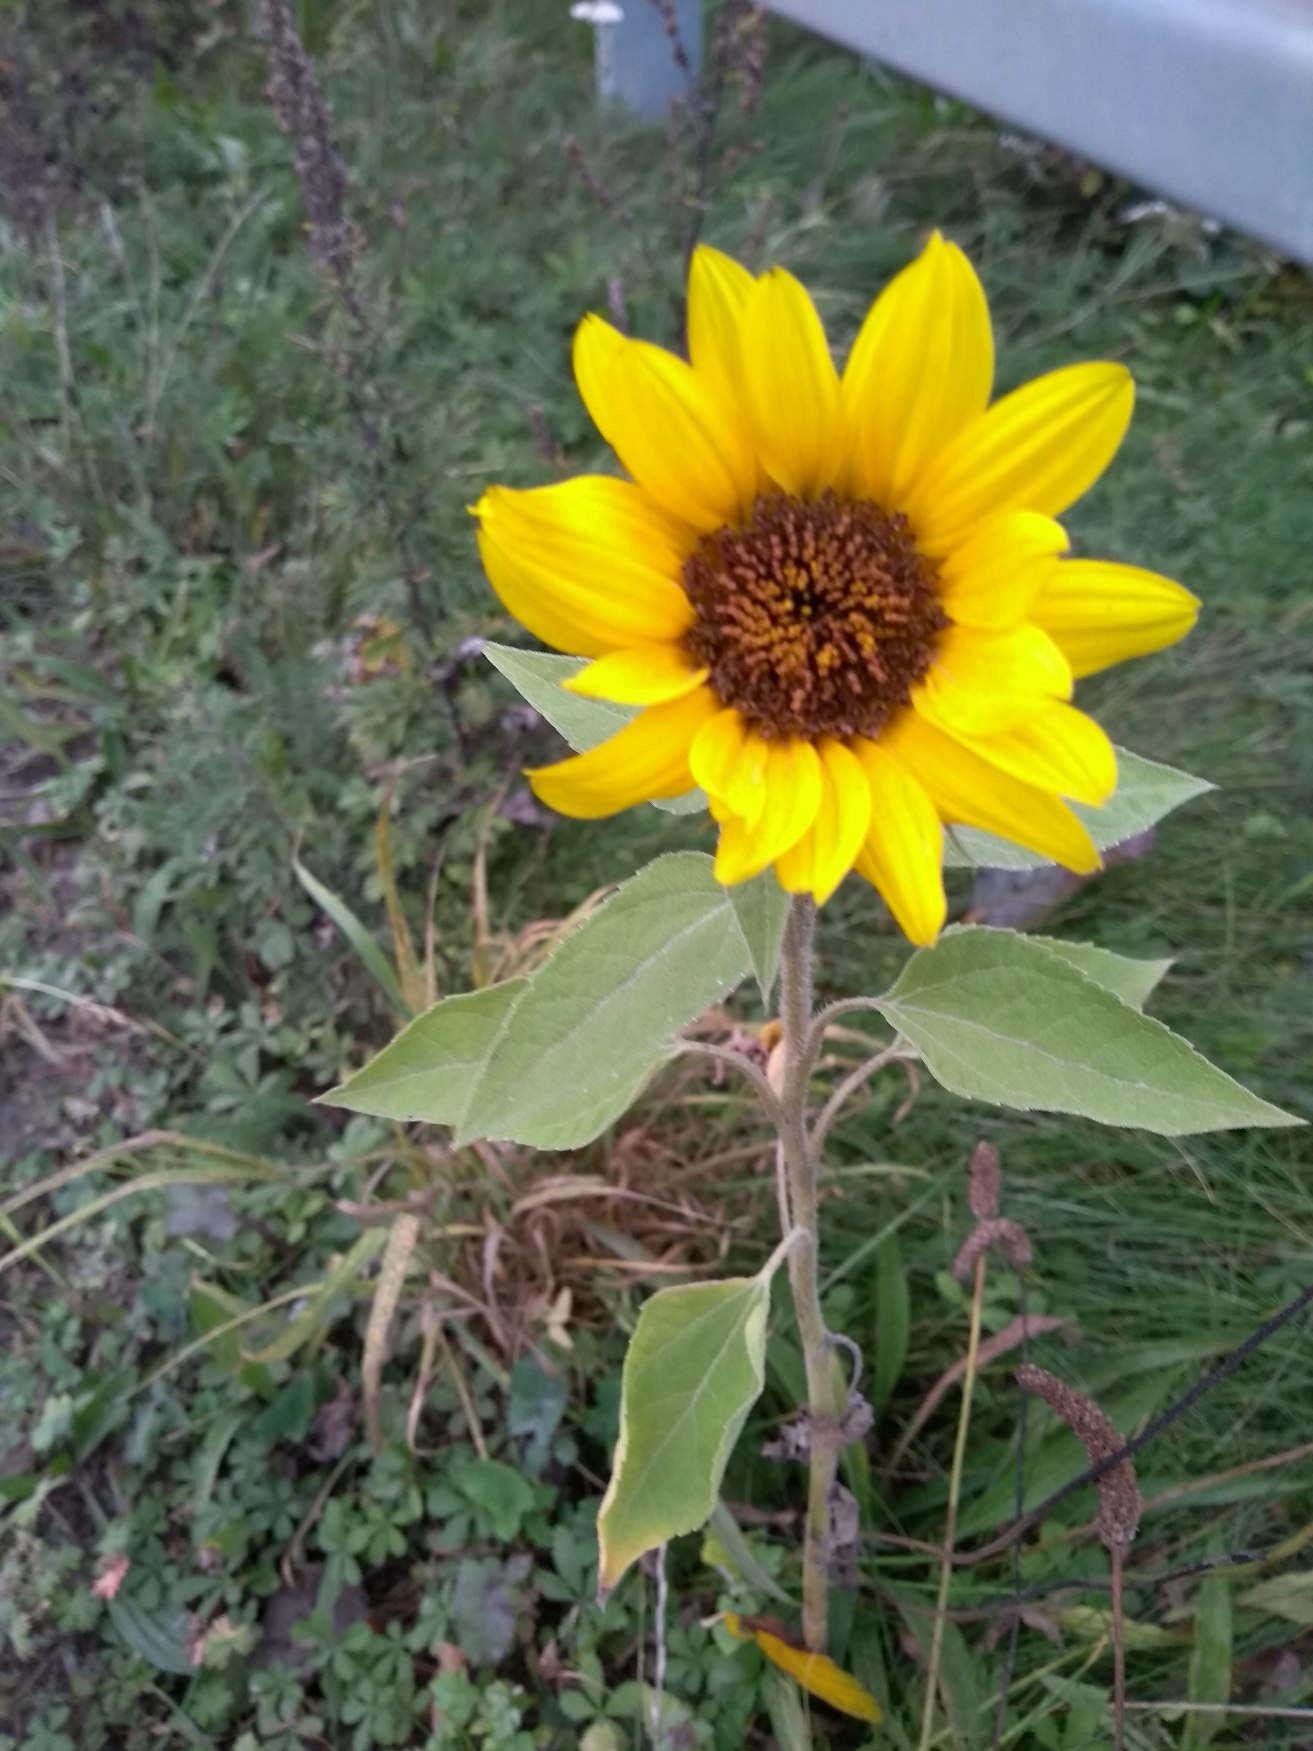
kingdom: Plantae
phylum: Tracheophyta
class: Magnoliopsida
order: Asterales
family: Asteraceae
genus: Helianthus
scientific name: Helianthus annuus
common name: Solsikke
